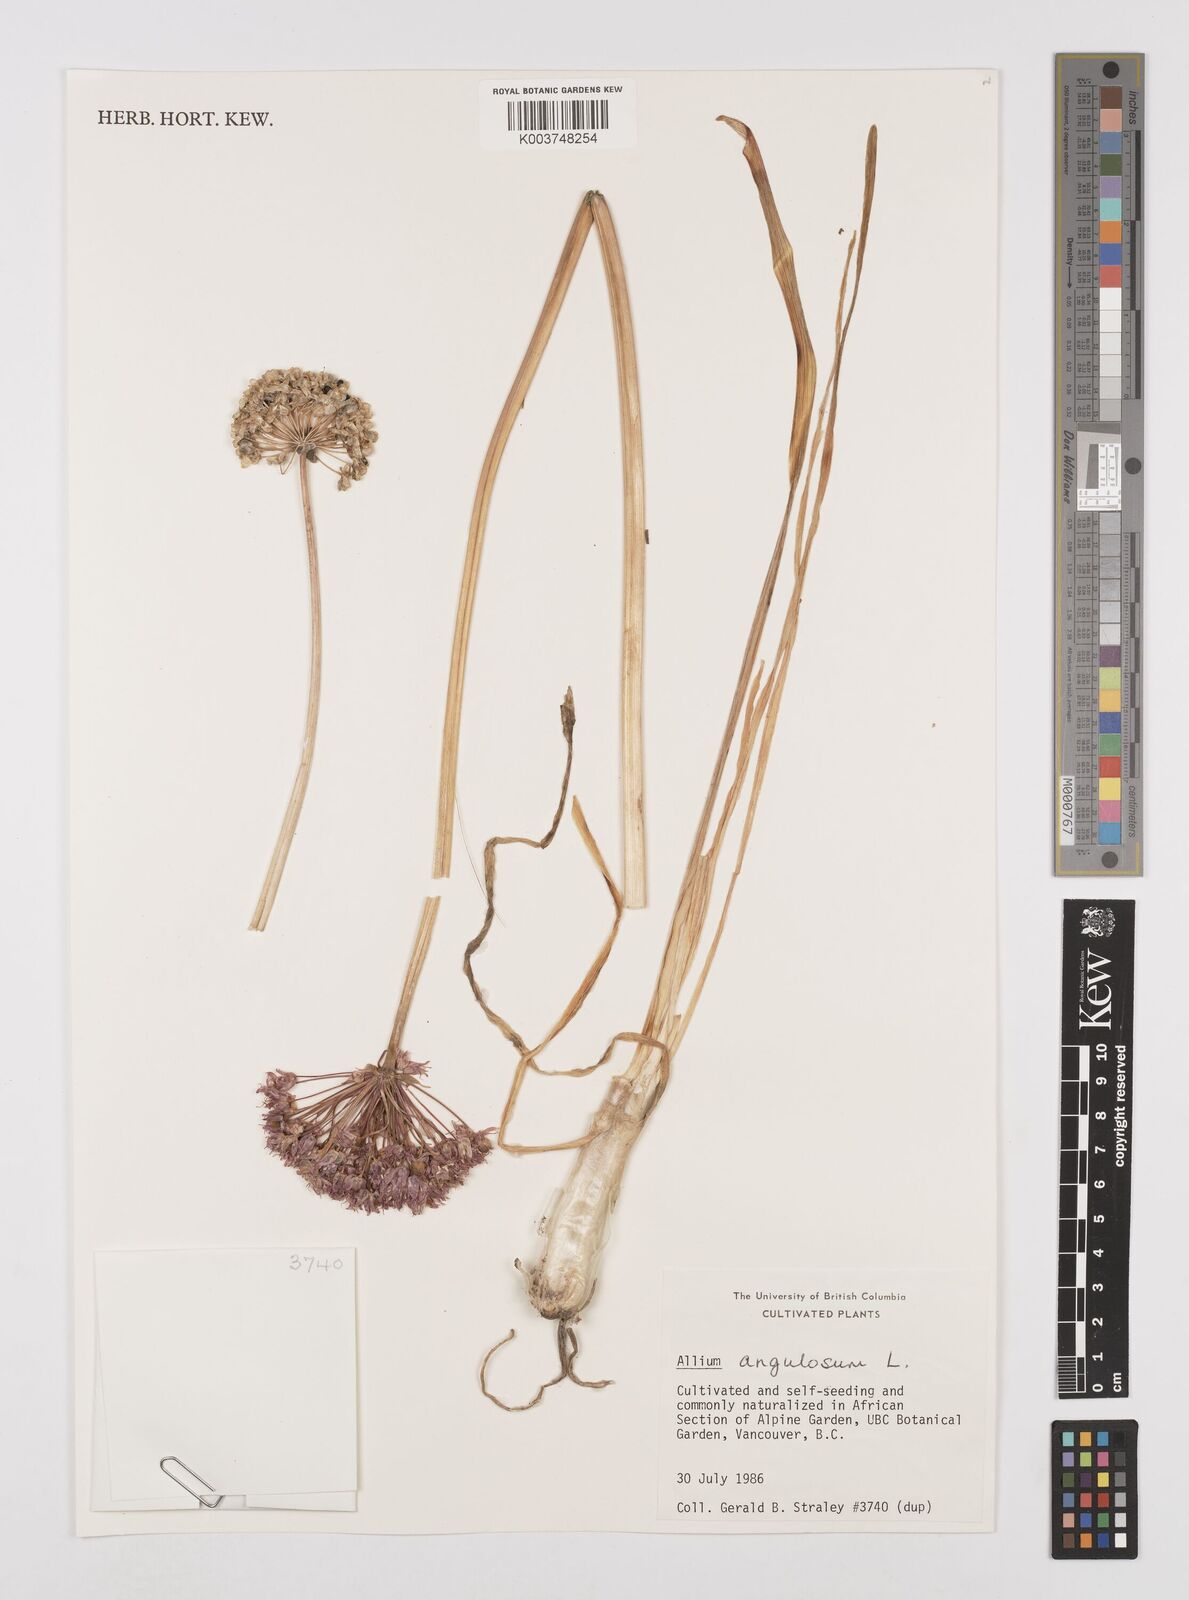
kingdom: Plantae
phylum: Tracheophyta
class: Liliopsida
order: Asparagales
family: Amaryllidaceae
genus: Allium
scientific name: Allium angulosum
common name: Mouse garlic
